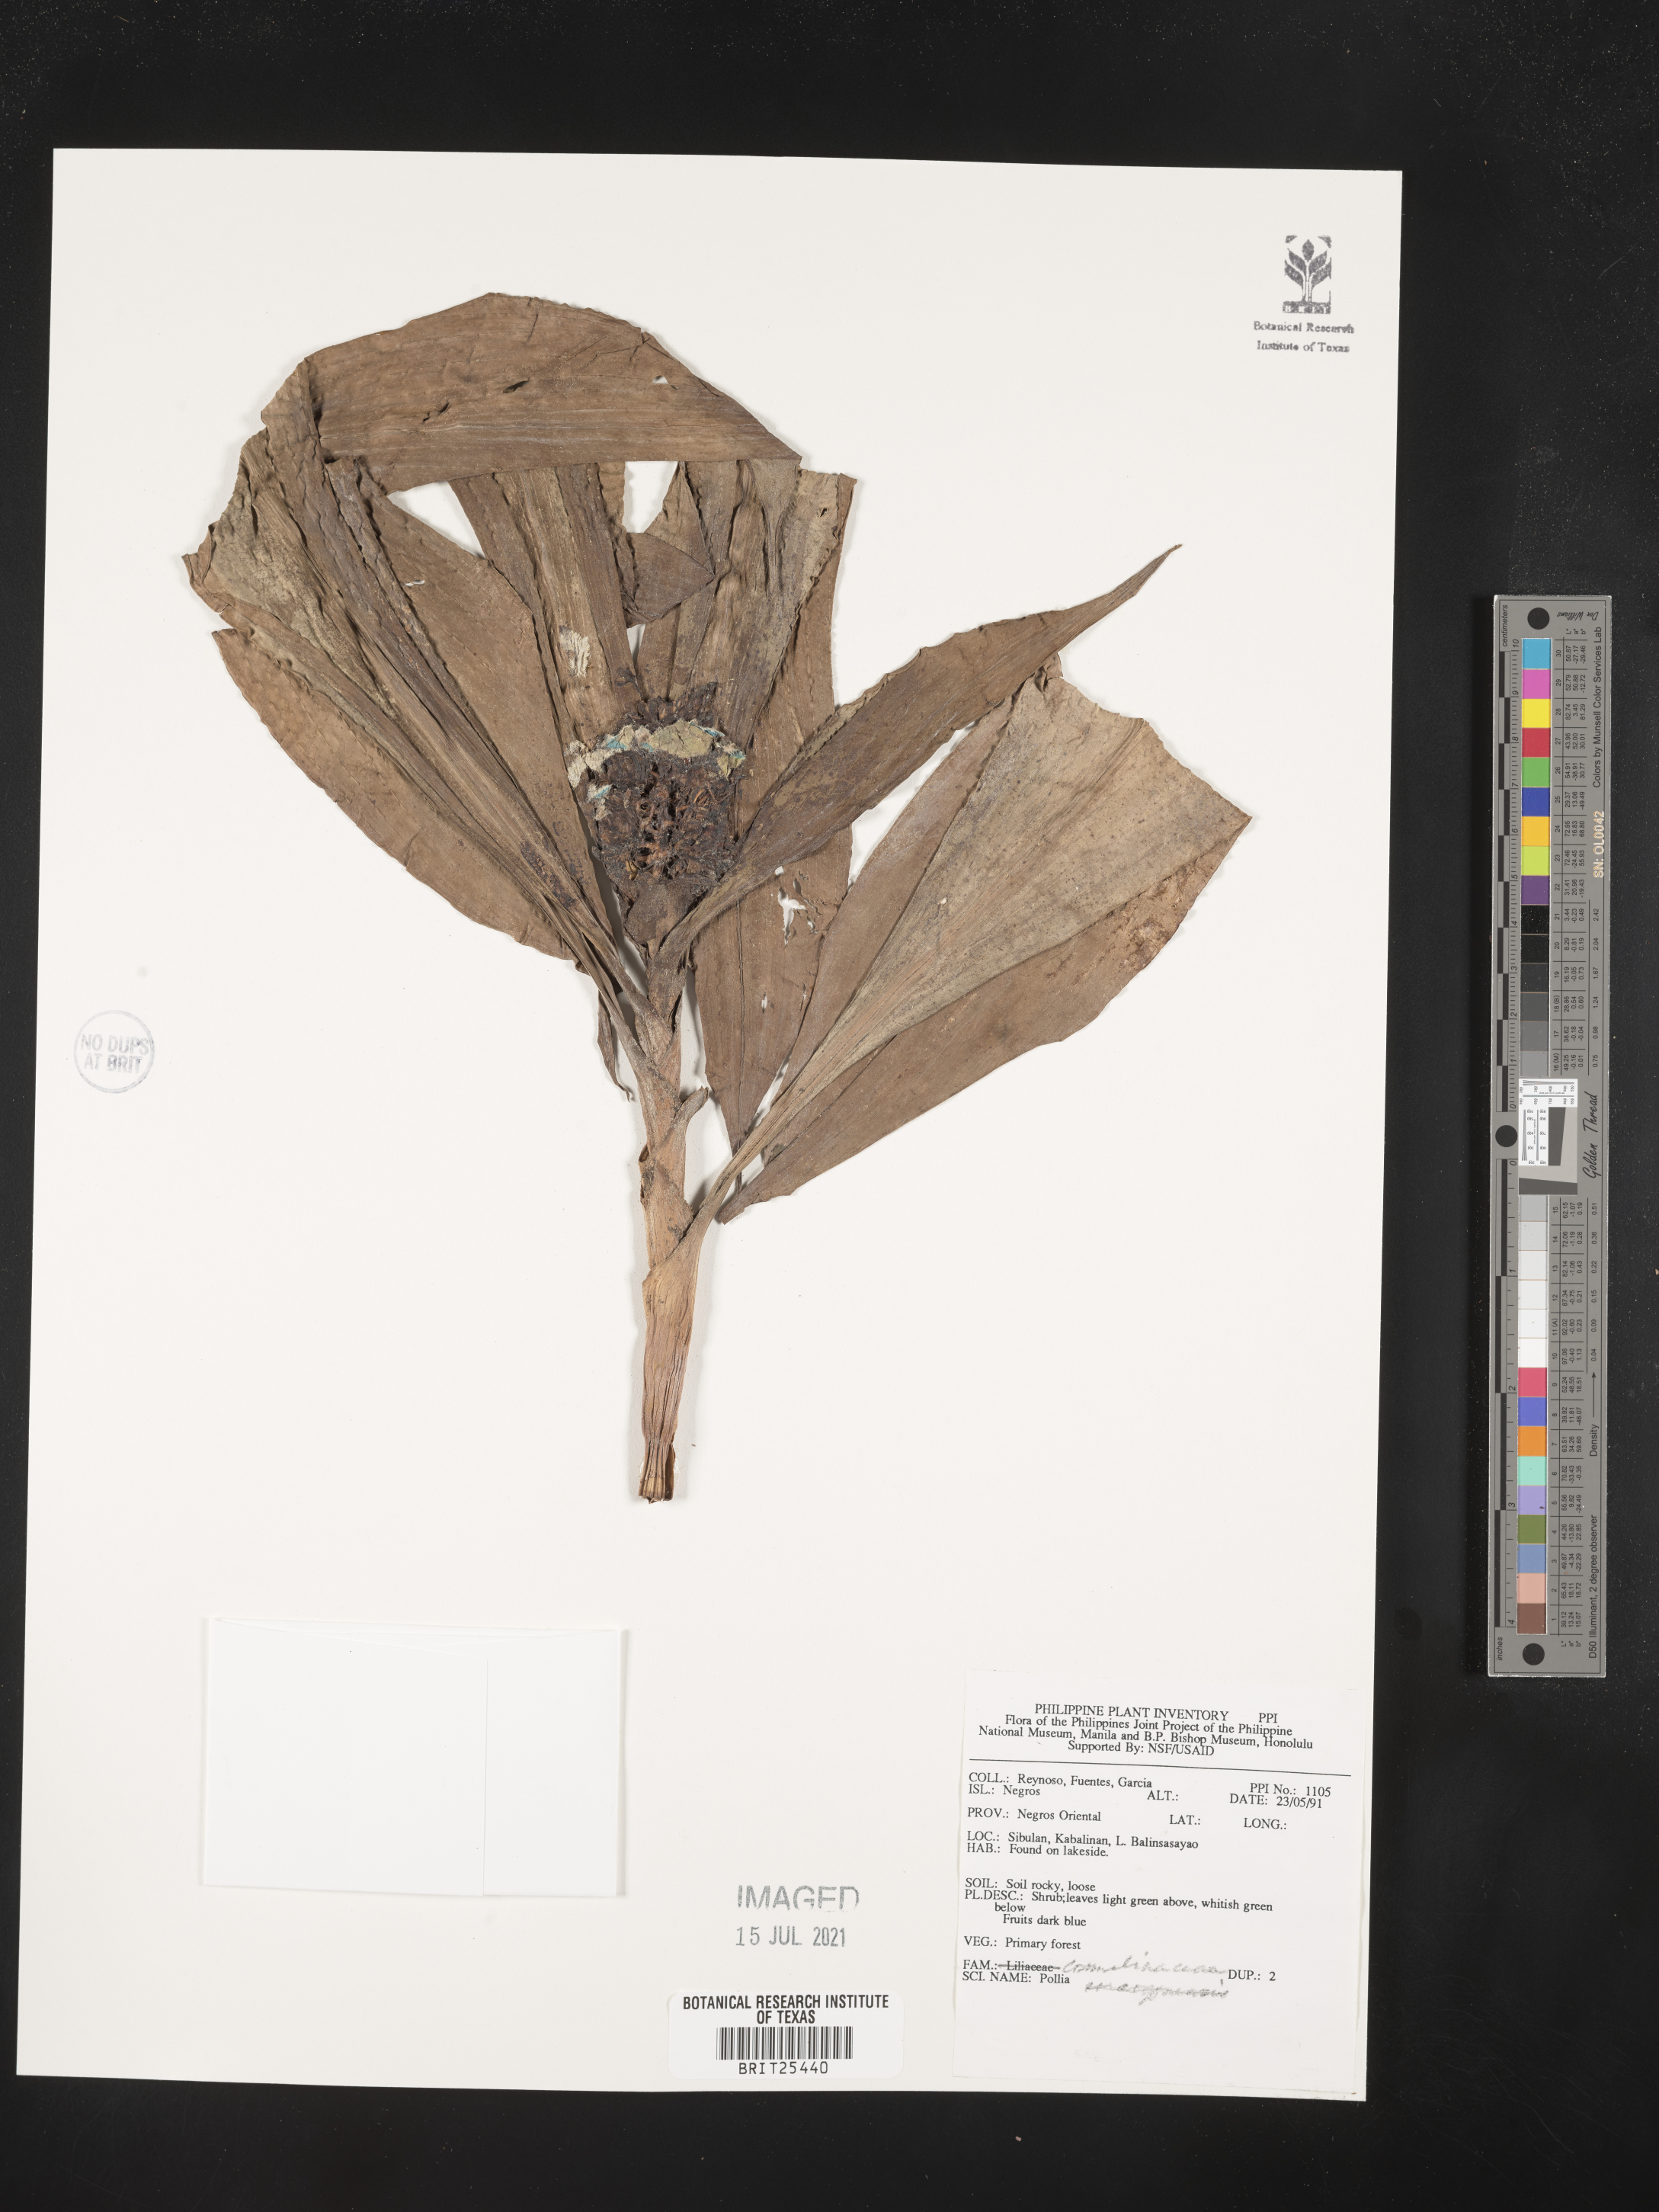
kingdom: Plantae
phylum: Tracheophyta
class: Liliopsida
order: Commelinales
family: Commelinaceae
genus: Pollia
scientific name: Pollia secundiflora
